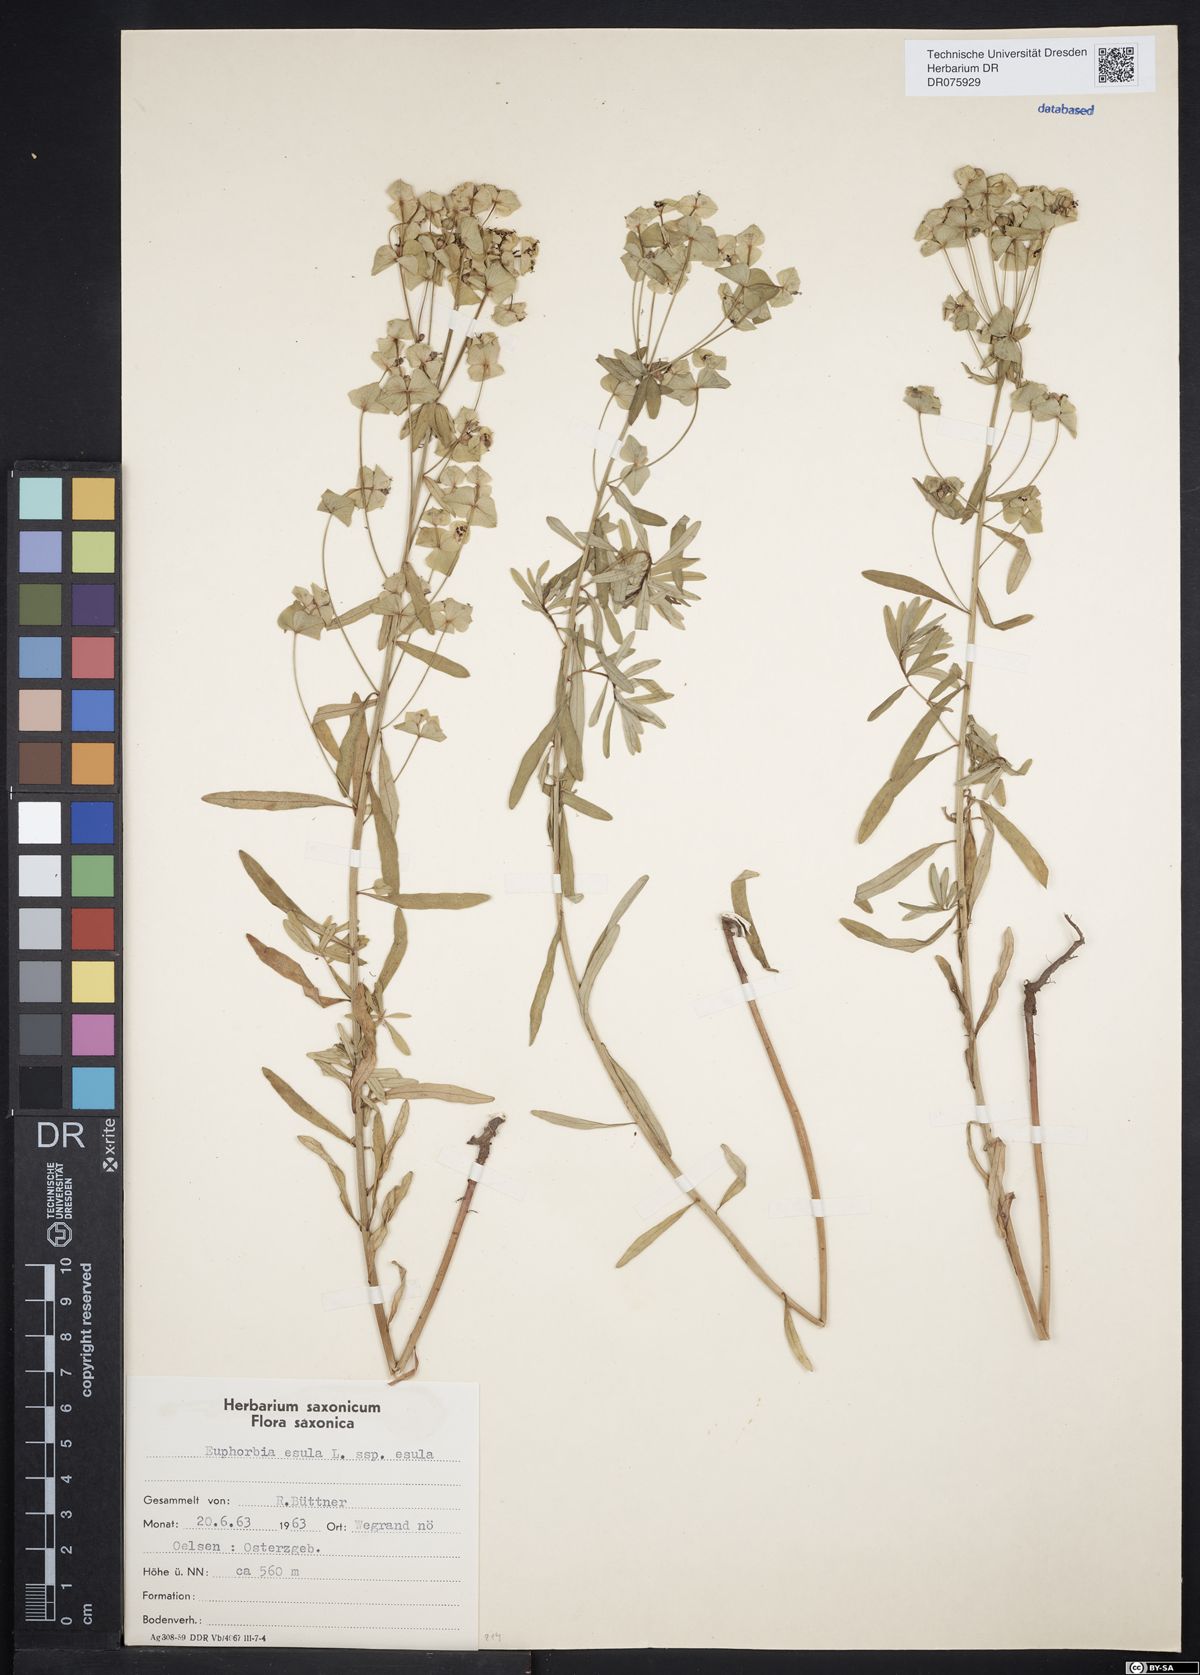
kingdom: Plantae
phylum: Tracheophyta
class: Magnoliopsida
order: Malpighiales
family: Euphorbiaceae
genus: Euphorbia
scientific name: Euphorbia esula
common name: Leafy spurge
